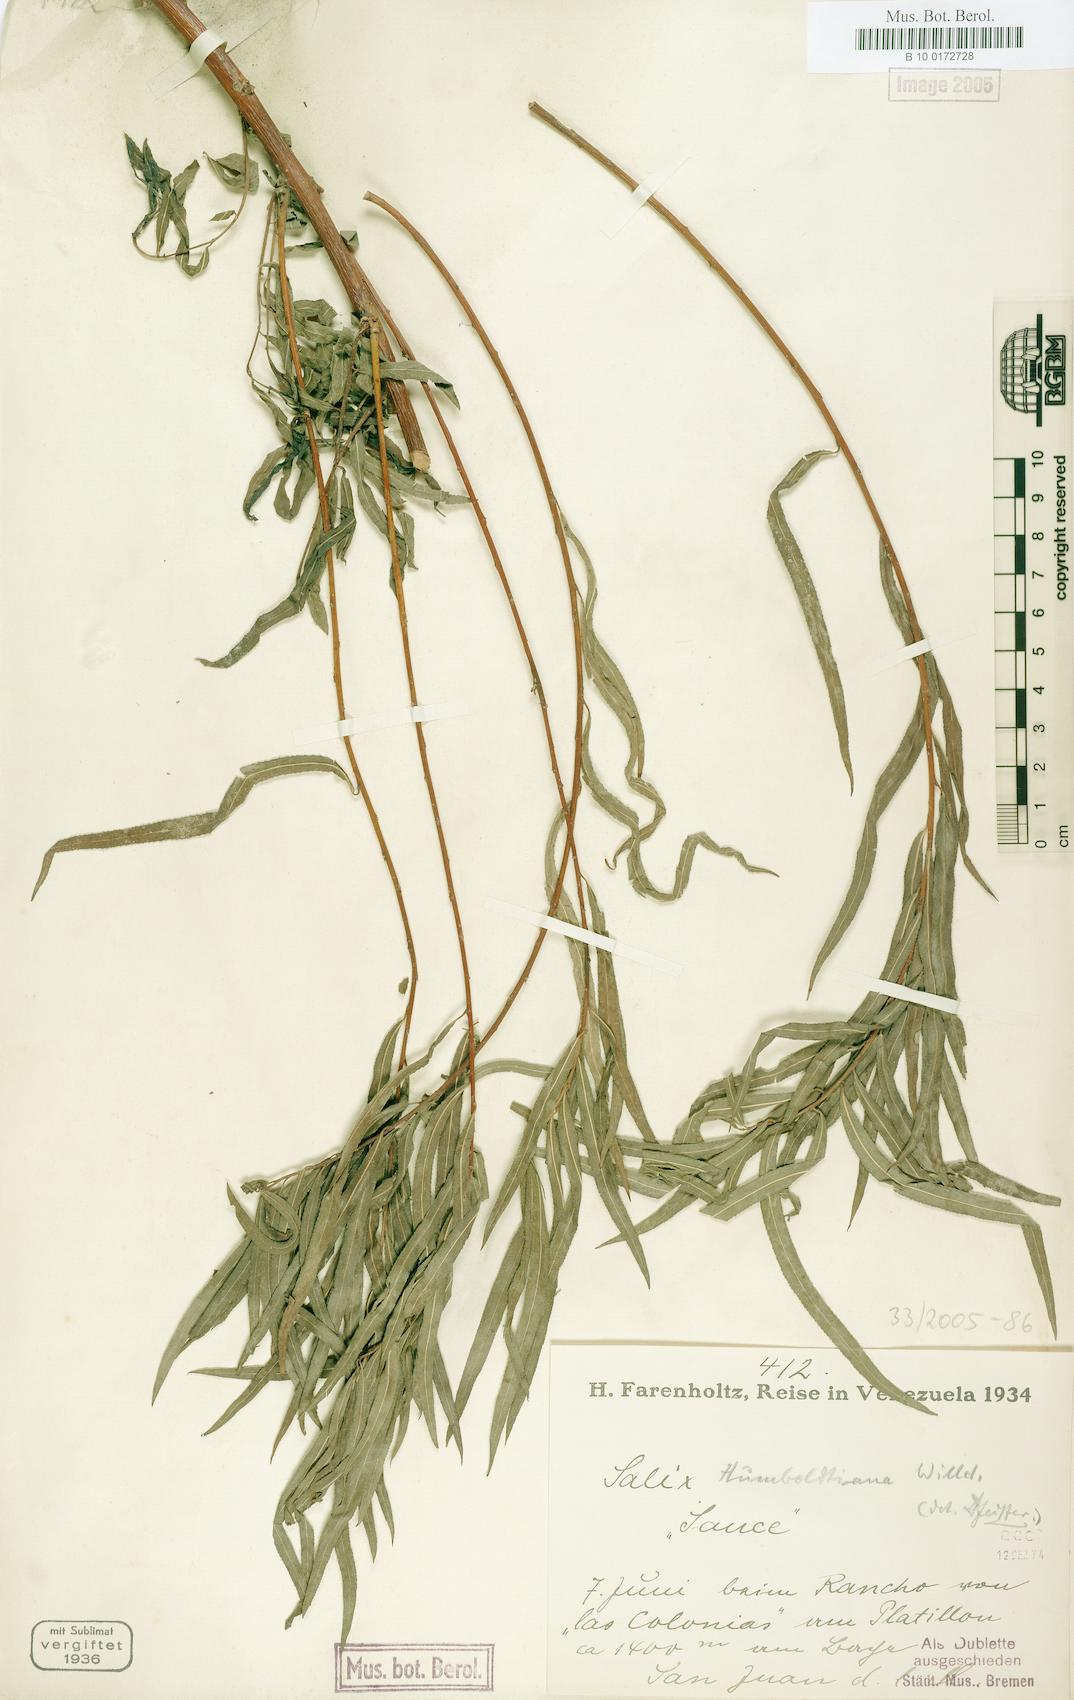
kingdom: Plantae
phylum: Tracheophyta
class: Magnoliopsida
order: Malpighiales
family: Salicaceae
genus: Salix
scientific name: Salix humboldtiana
